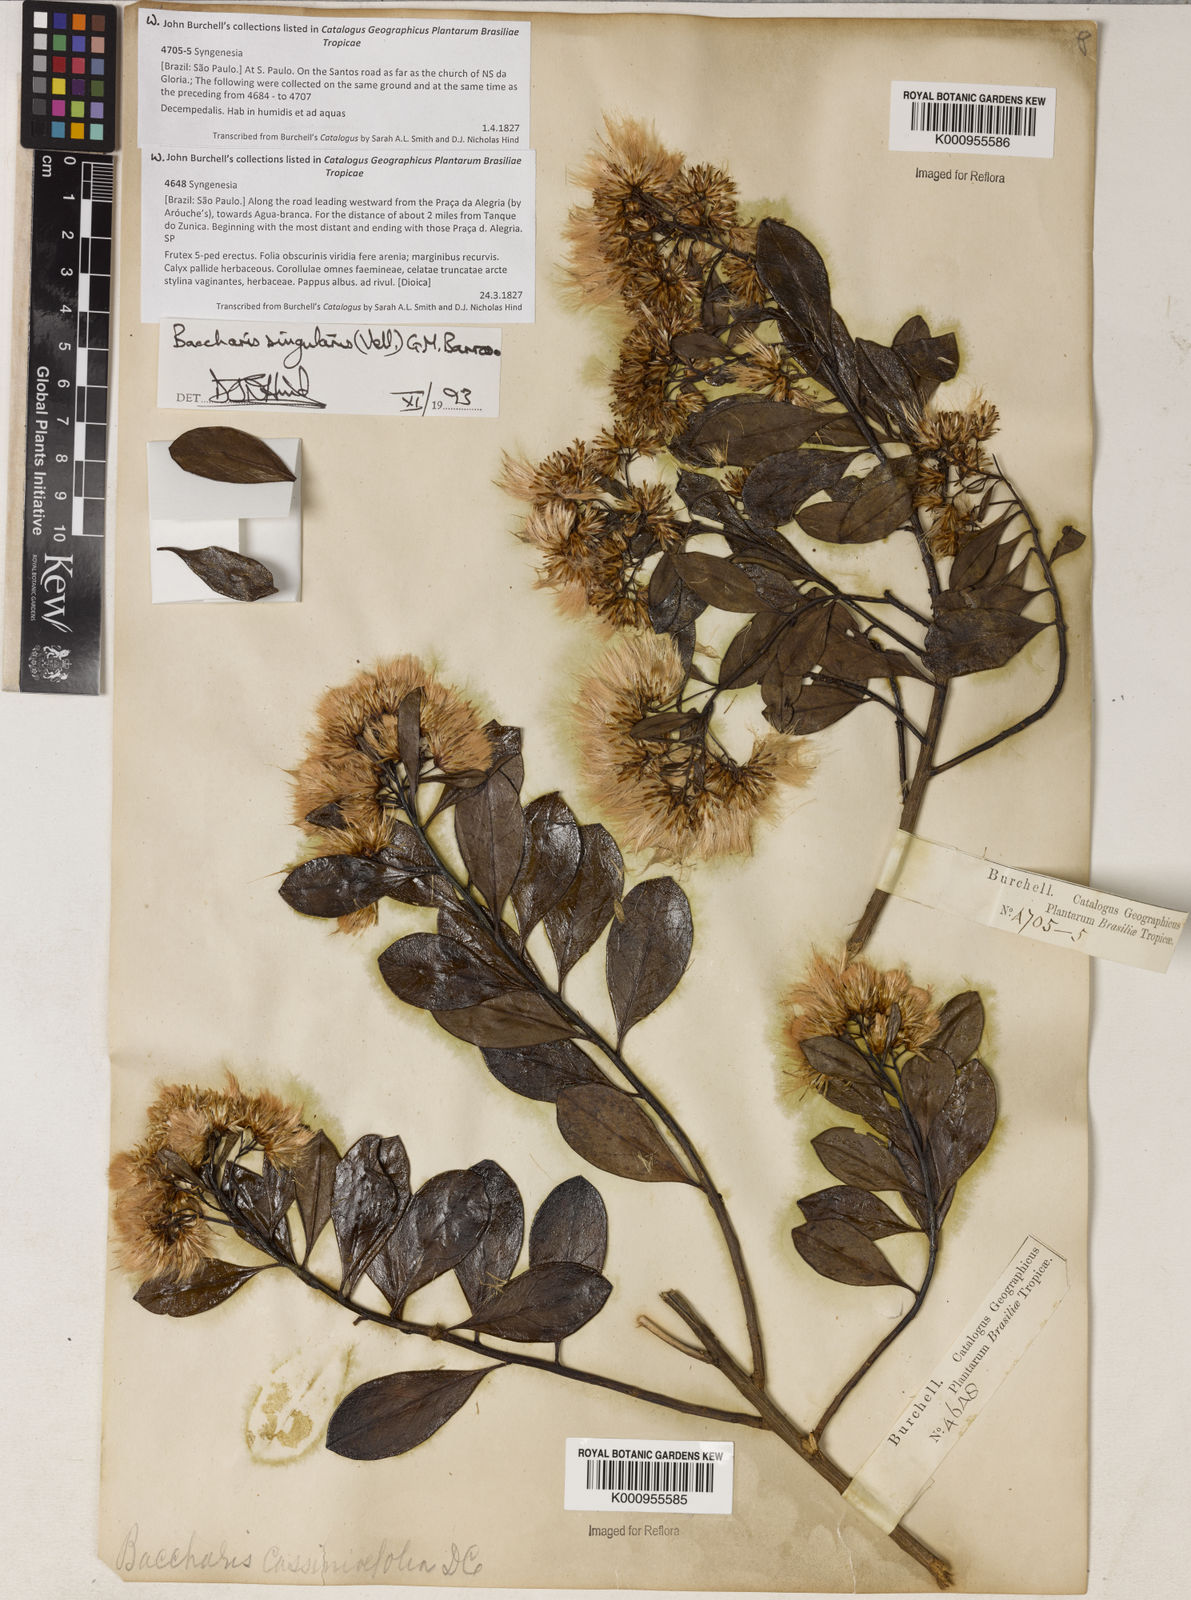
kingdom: Plantae
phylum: Tracheophyta
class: Magnoliopsida
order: Asterales
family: Asteraceae
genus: Baccharis
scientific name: Baccharis singularis
